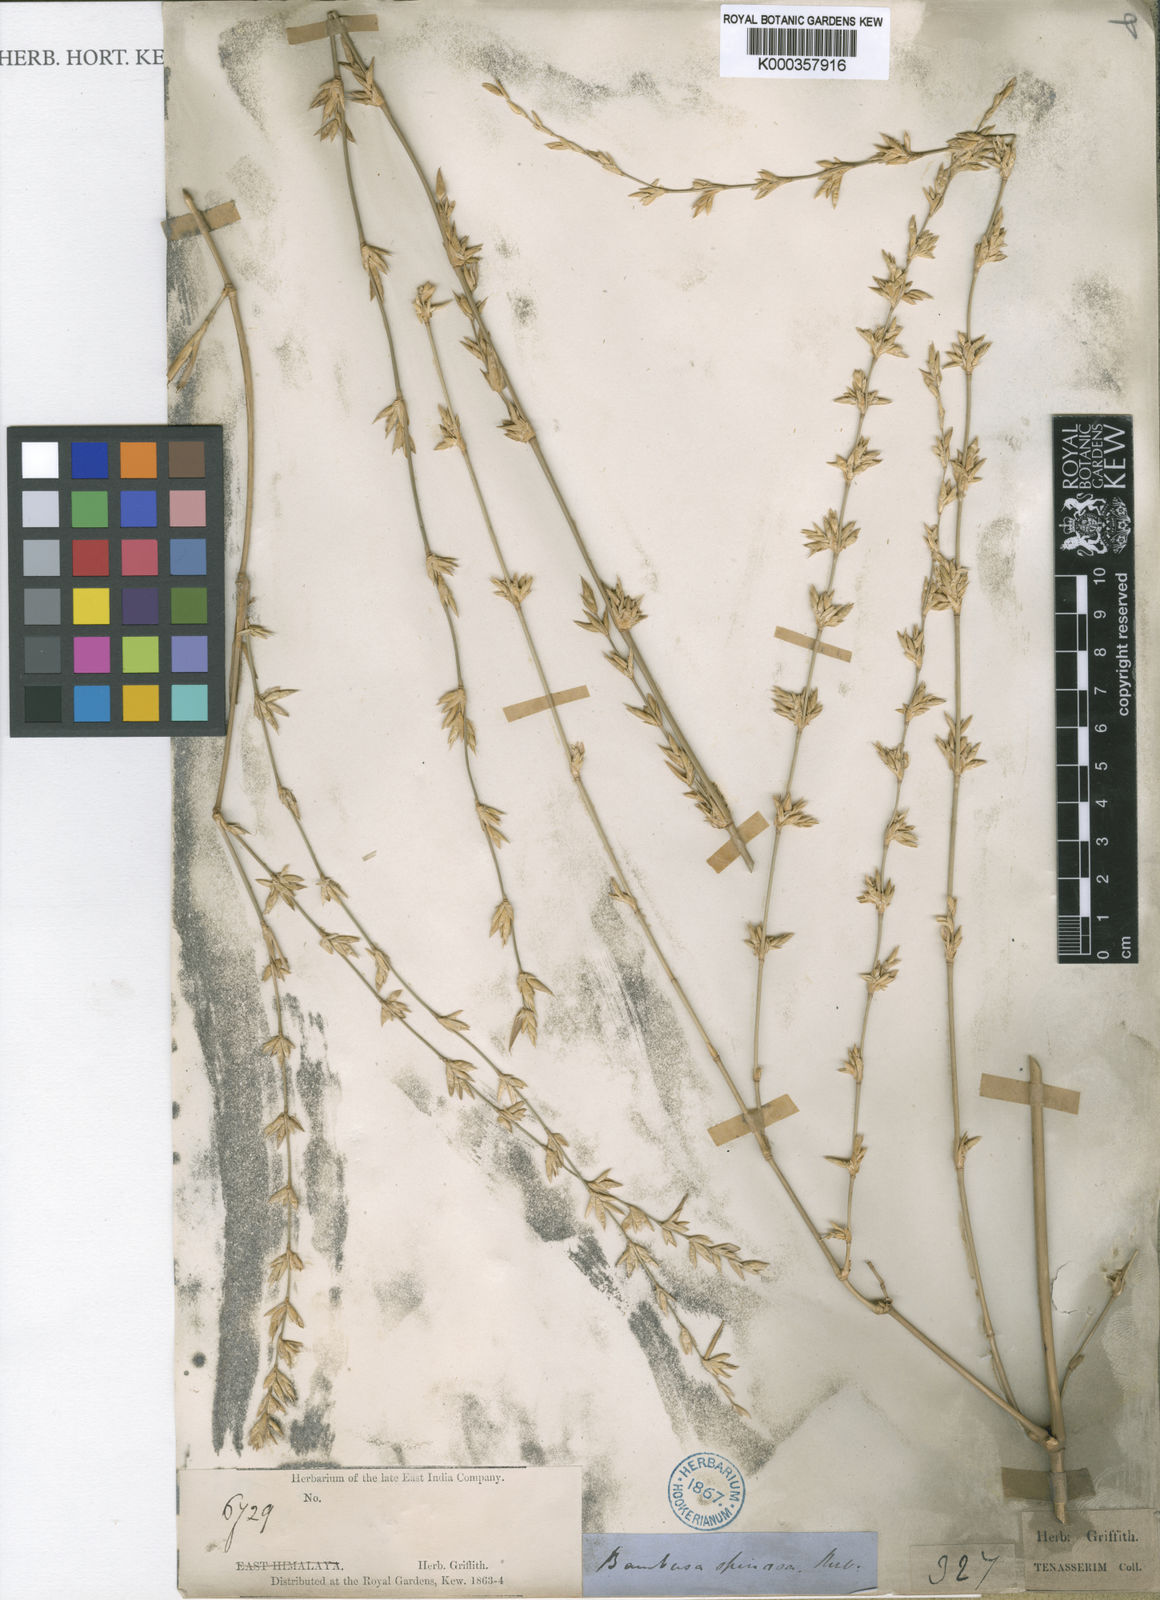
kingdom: Plantae
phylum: Tracheophyta
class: Liliopsida
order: Poales
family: Poaceae
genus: Bambusa
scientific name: Bambusa
